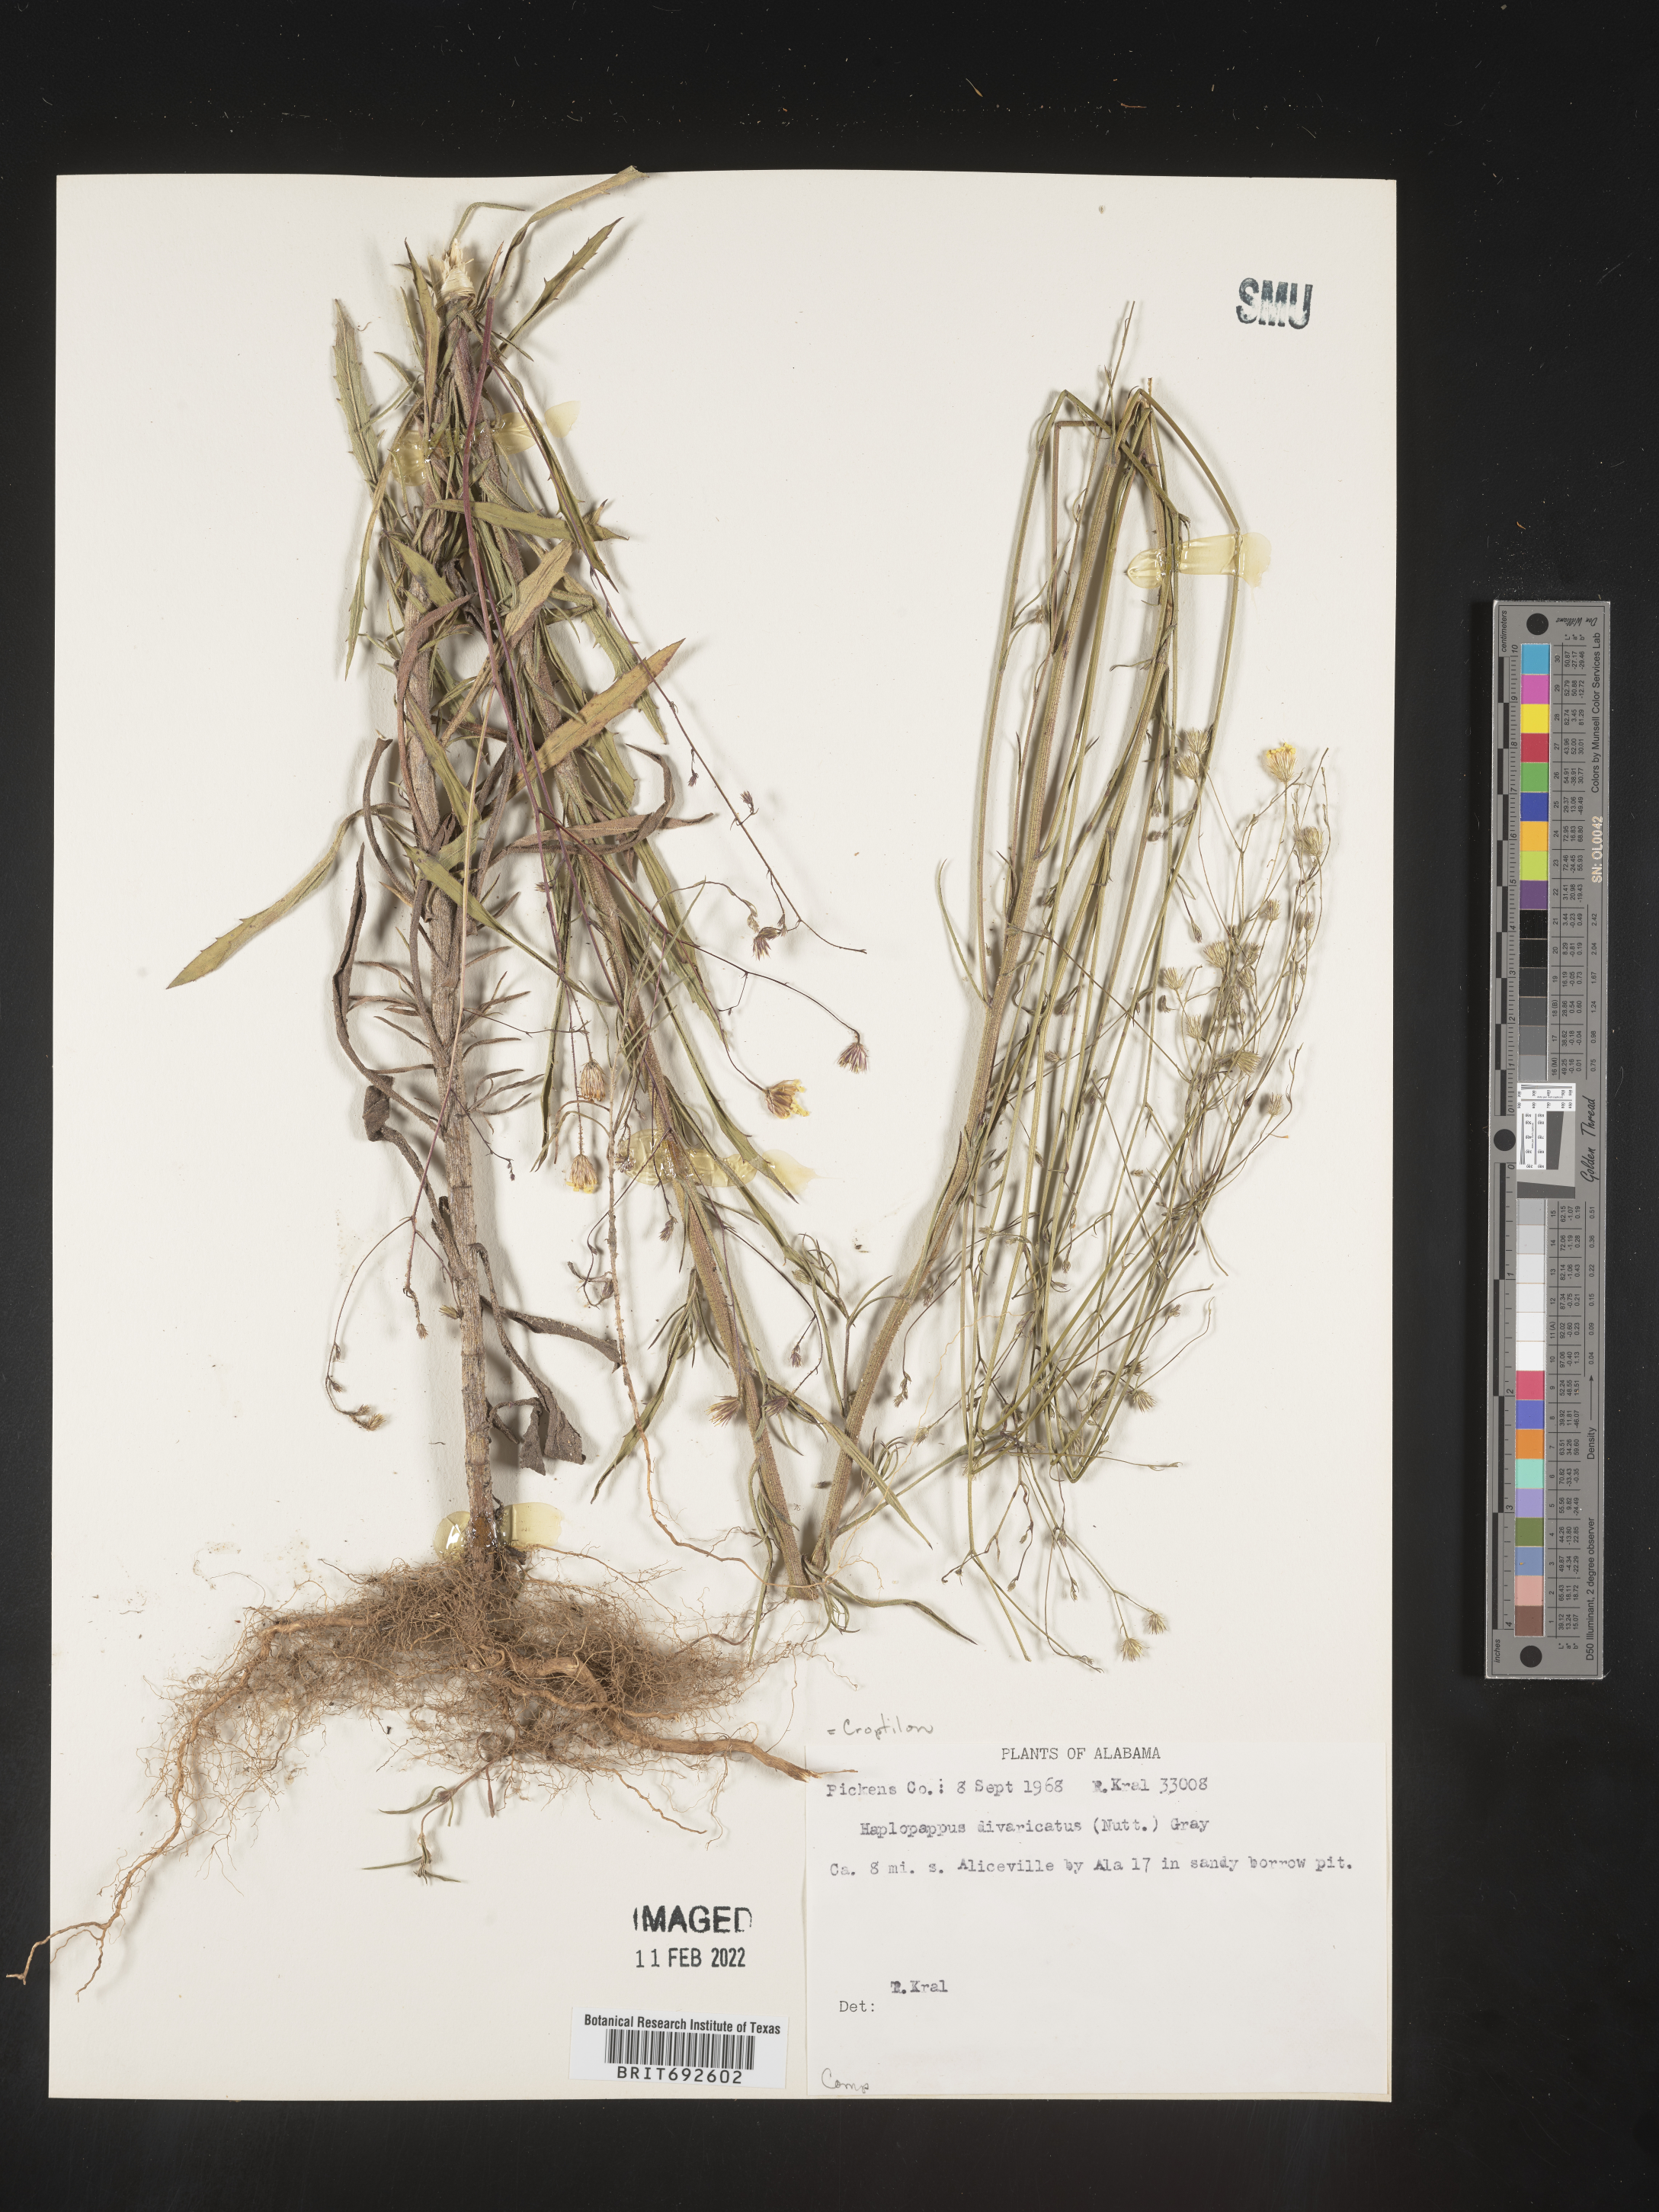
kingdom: Plantae
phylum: Tracheophyta
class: Magnoliopsida
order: Asterales
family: Asteraceae
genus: Croptilon
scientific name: Croptilon divaricatum
